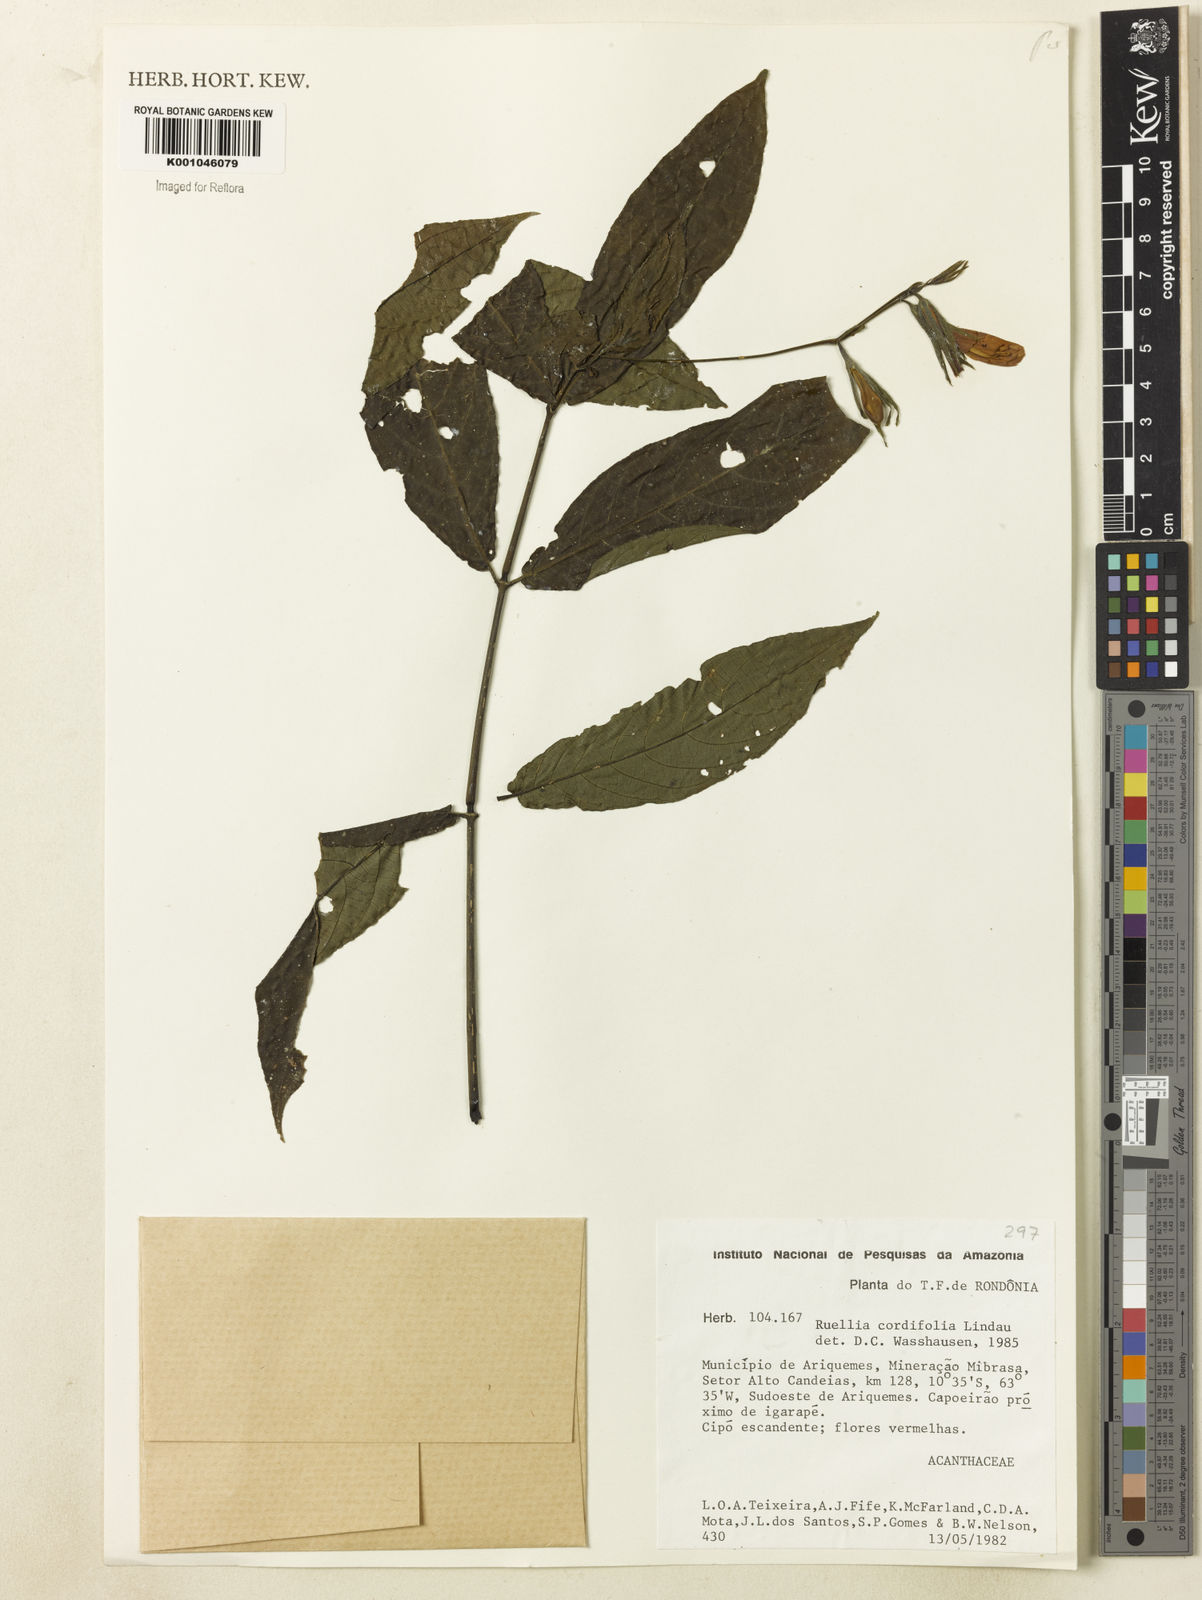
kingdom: Plantae
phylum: Tracheophyta
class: Magnoliopsida
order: Lamiales
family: Acanthaceae
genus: Ruellia
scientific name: Ruellia inflata
